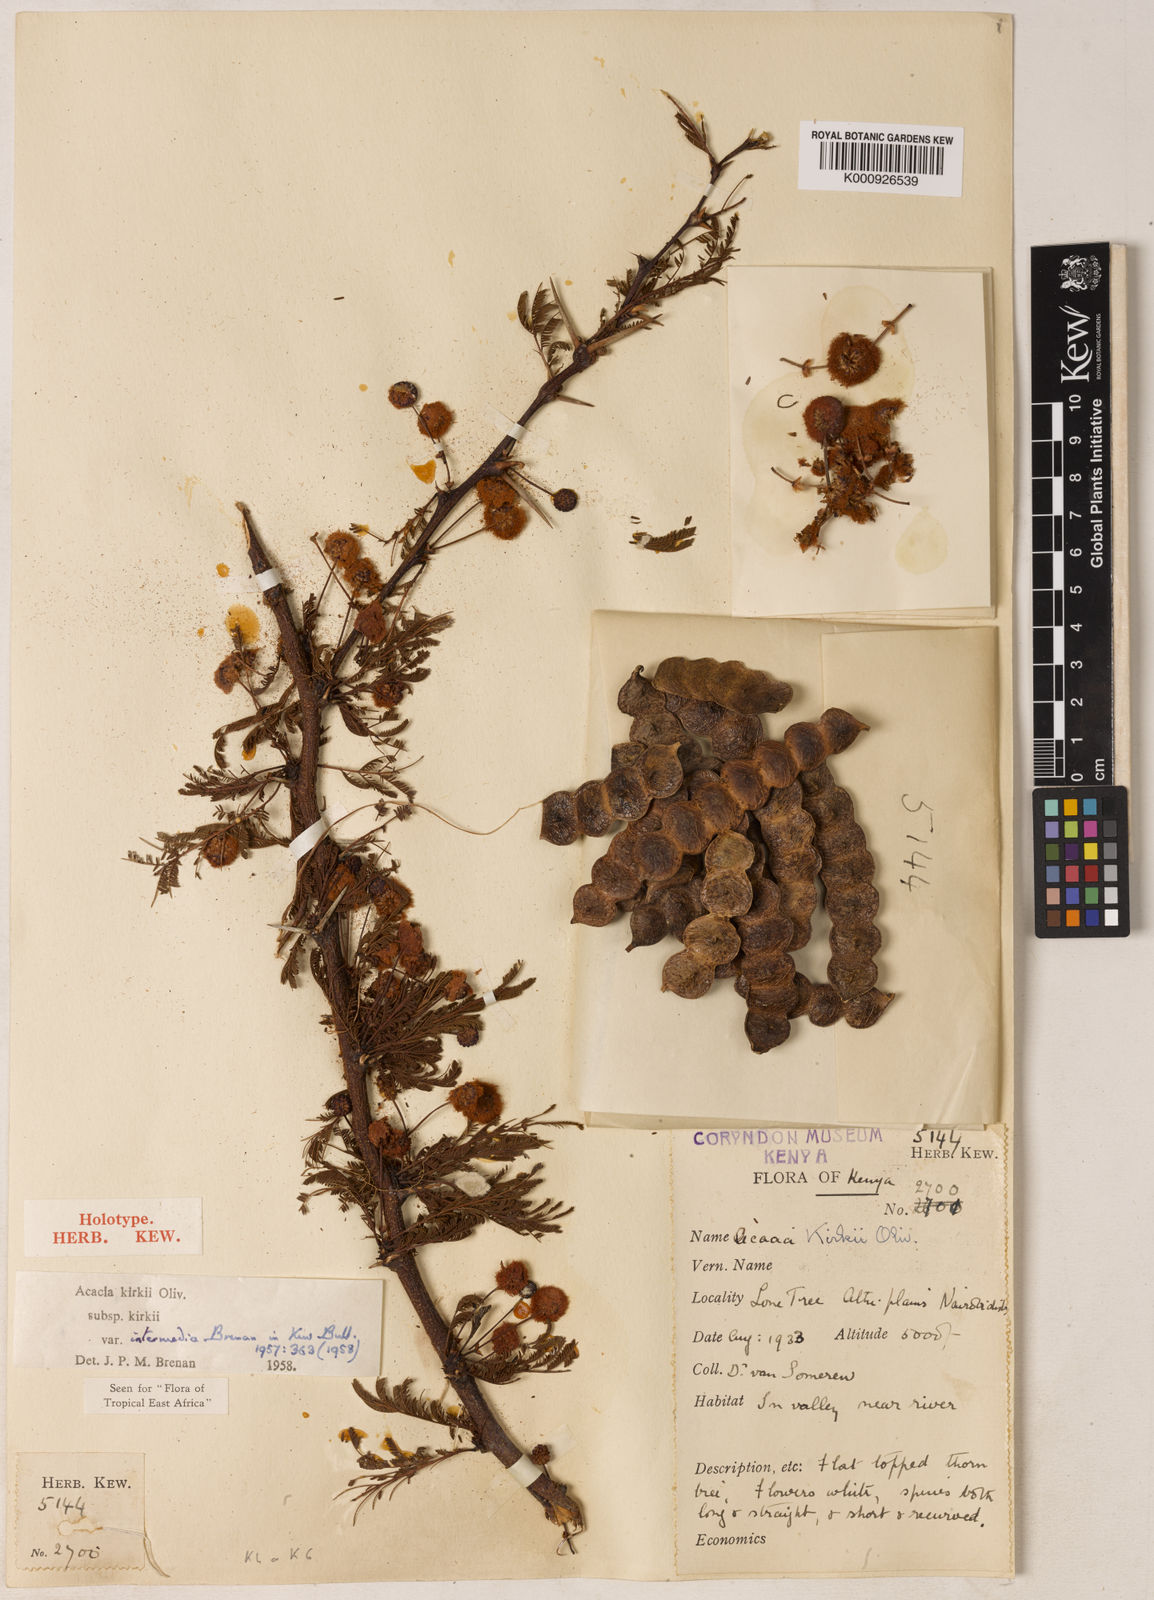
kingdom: Plantae
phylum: Tracheophyta
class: Magnoliopsida
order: Fabales
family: Fabaceae
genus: Vachellia
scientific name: Vachellia kirkii
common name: Flood-plain acacia
